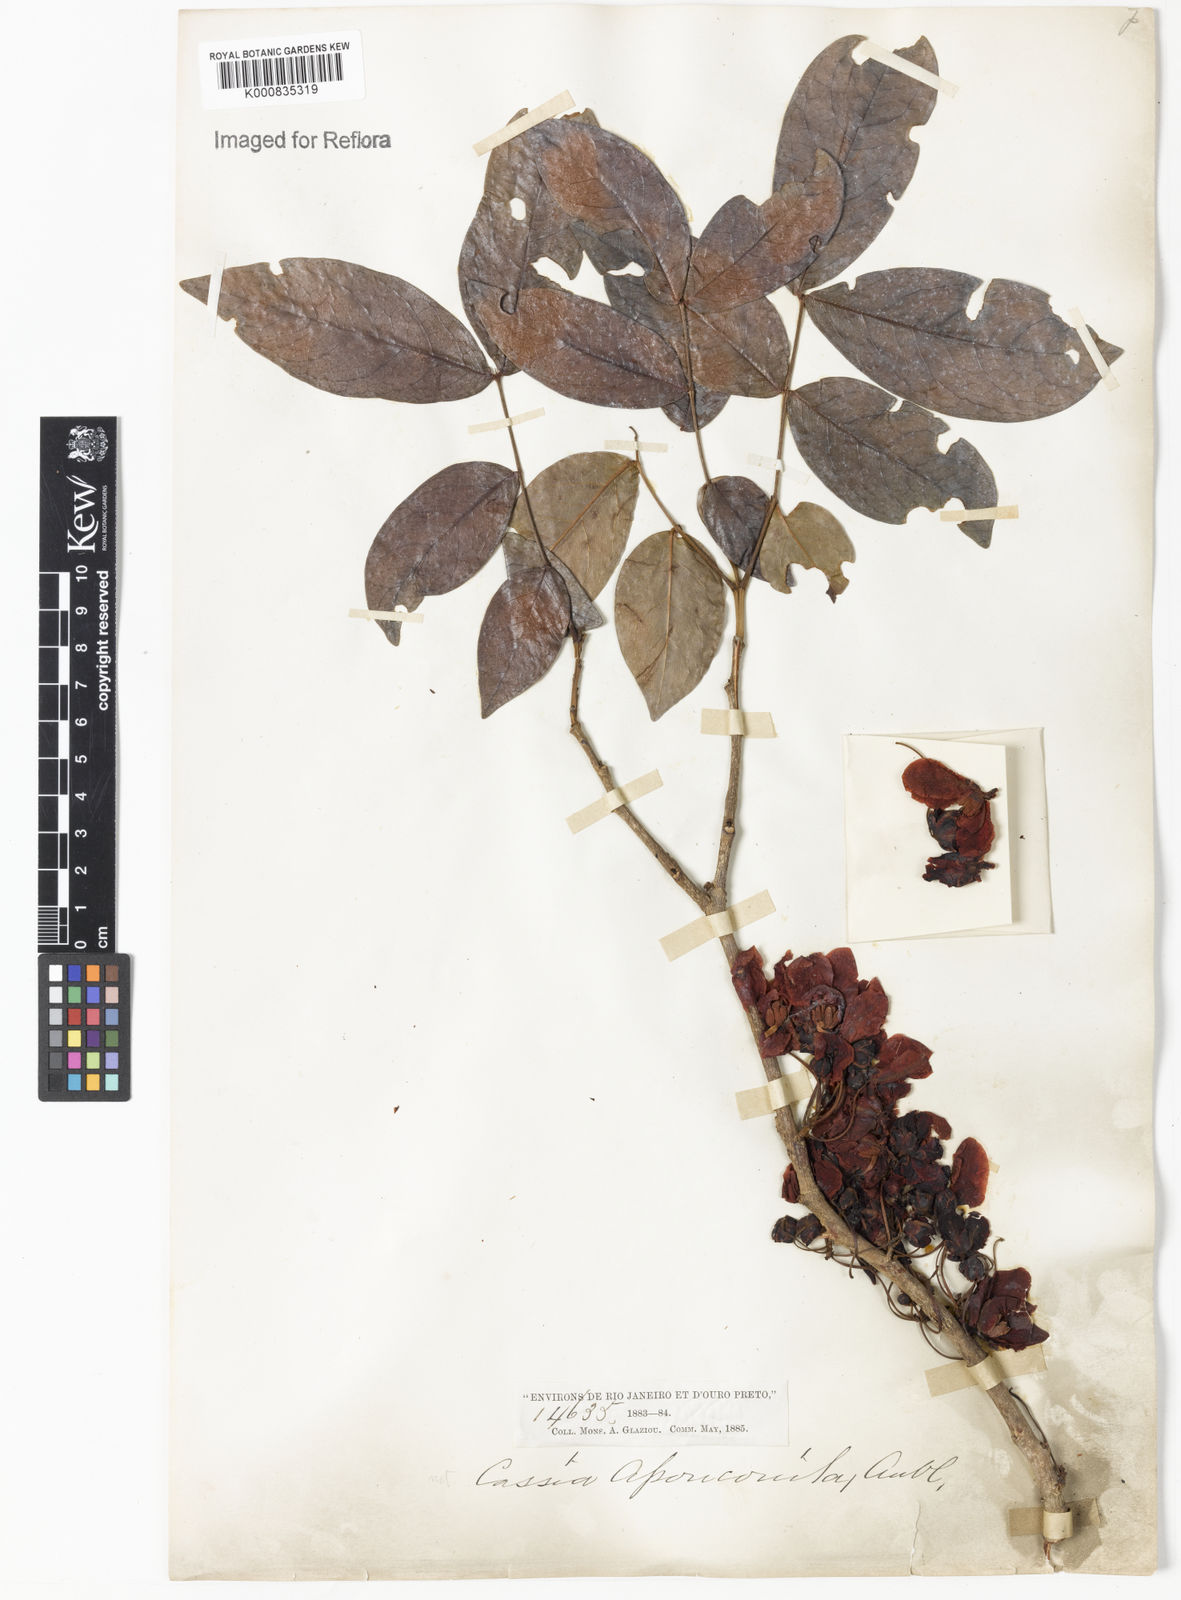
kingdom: Plantae
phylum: Tracheophyta
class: Magnoliopsida
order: Fabales
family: Fabaceae
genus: Chamaecrista
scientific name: Chamaecrista apoucouita
